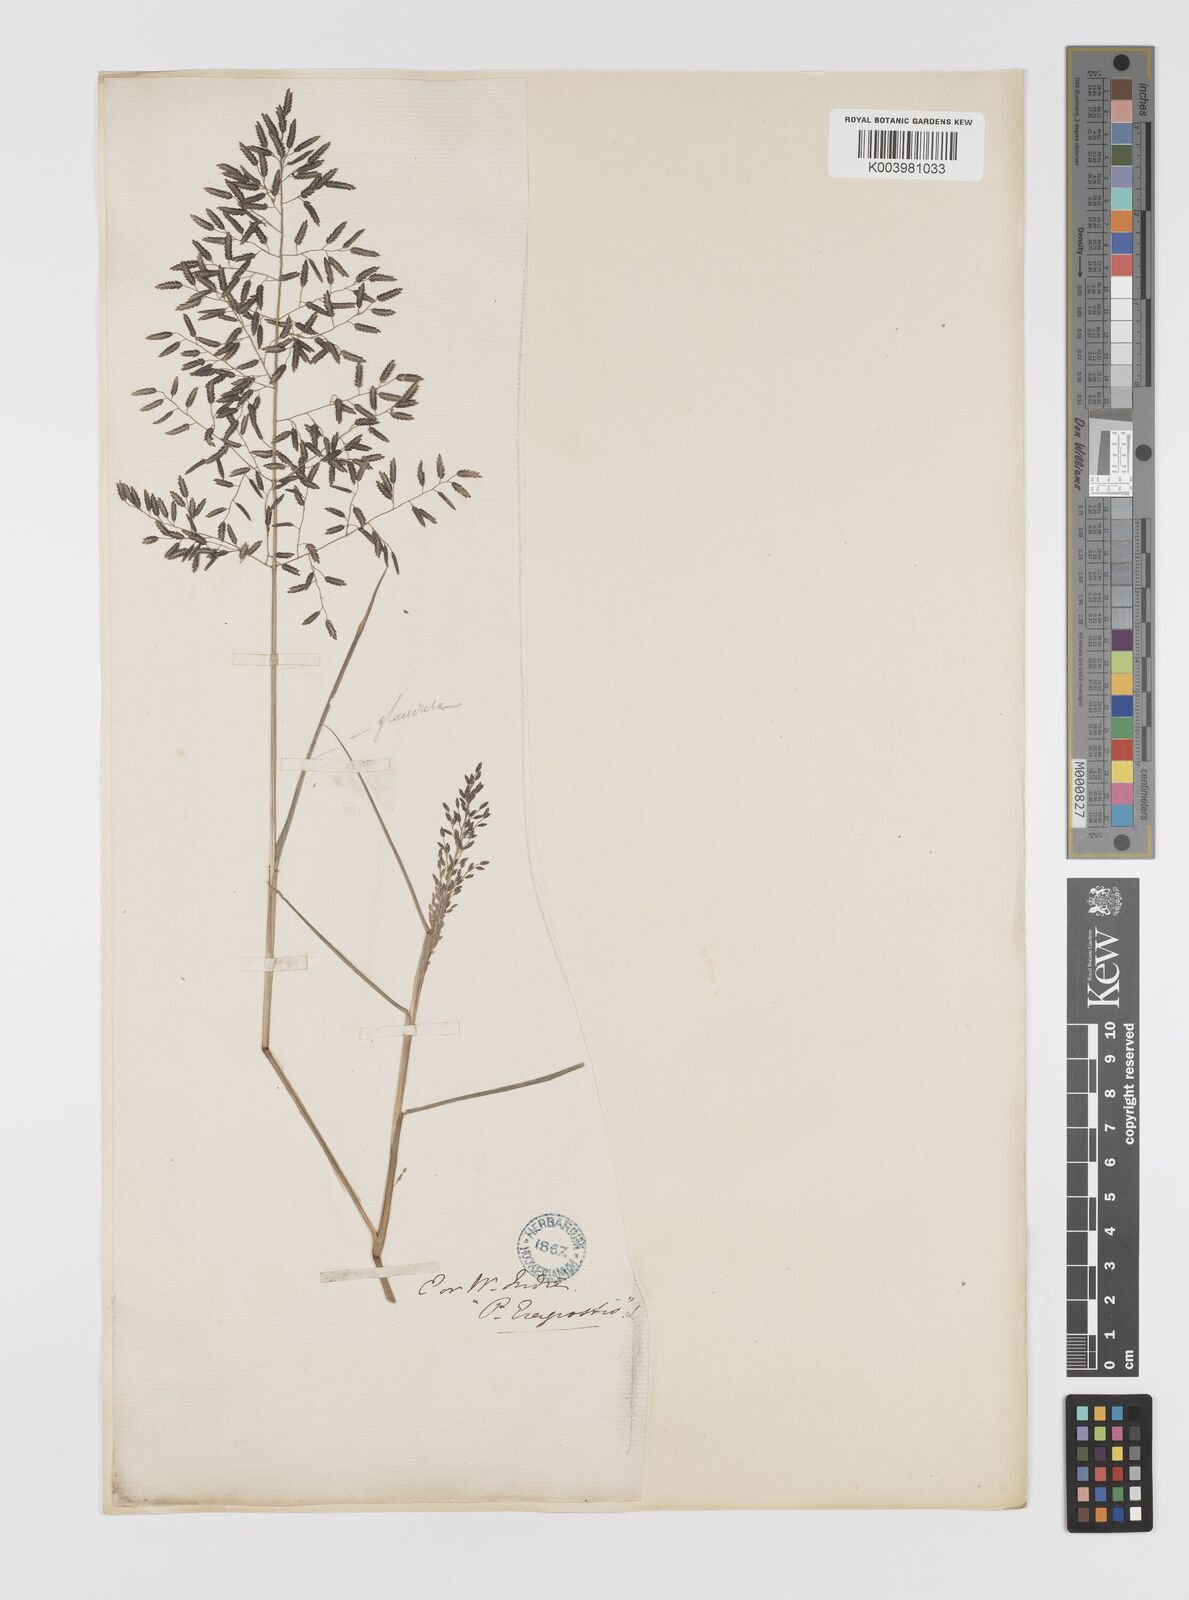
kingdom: Plantae
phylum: Tracheophyta
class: Liliopsida
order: Poales
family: Poaceae
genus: Eragrostis
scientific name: Eragrostis minor
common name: Small love-grass
